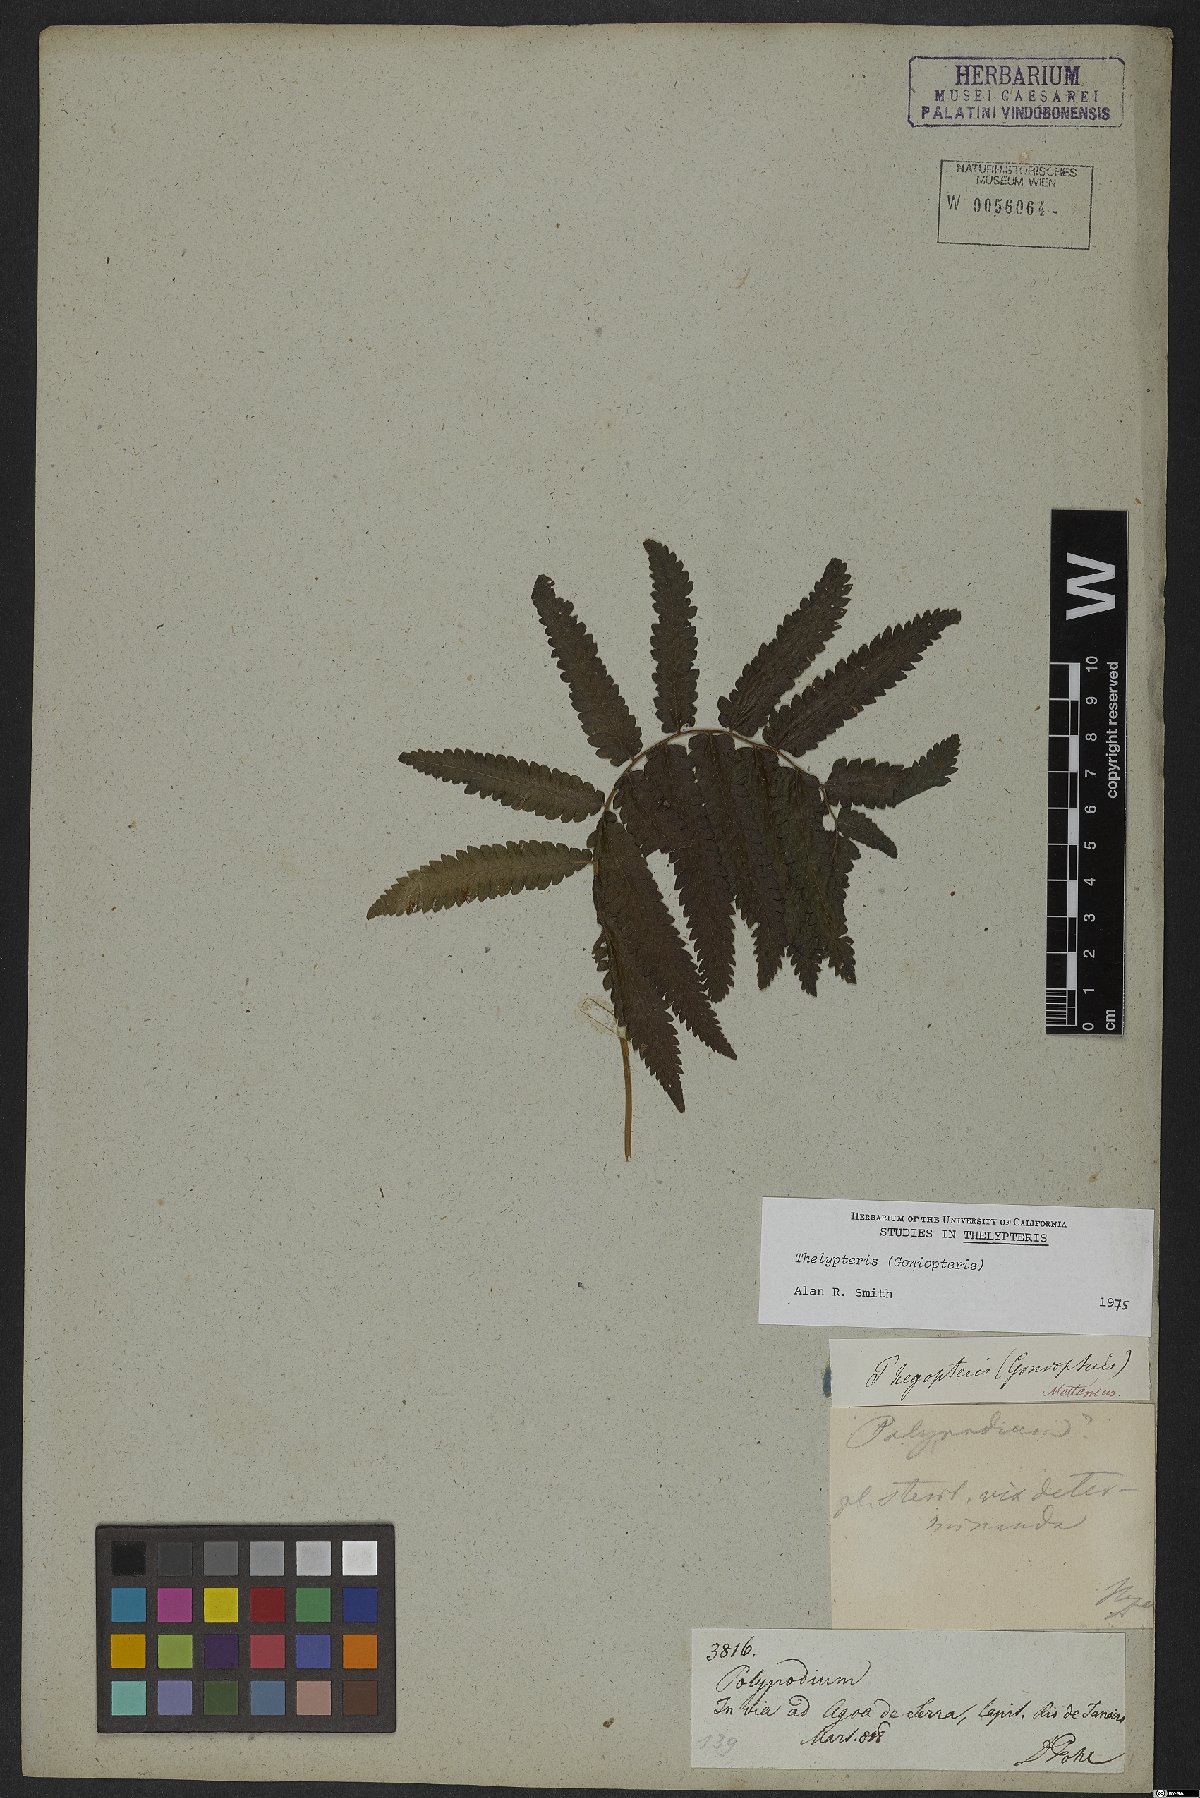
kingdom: Plantae
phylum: Tracheophyta
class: Polypodiopsida
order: Polypodiales
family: Thelypteridaceae
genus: Thelypteris
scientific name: Thelypteris
